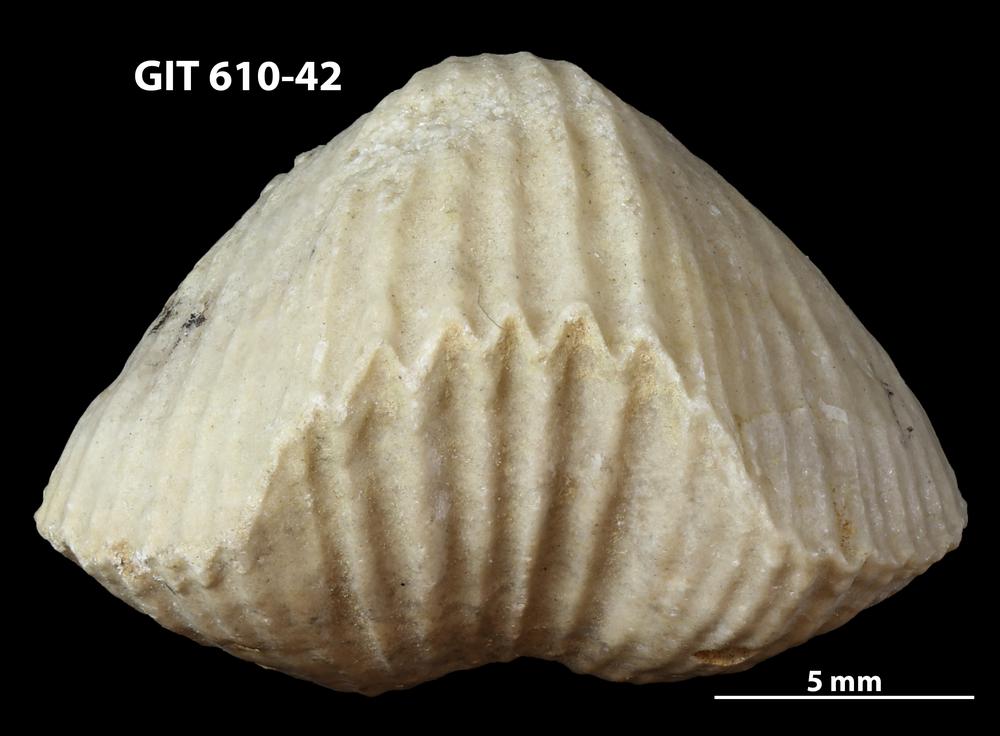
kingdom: Animalia
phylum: Brachiopoda
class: Rhynchonellata
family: Triplesiidae
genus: Cliftonia
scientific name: Cliftonia
